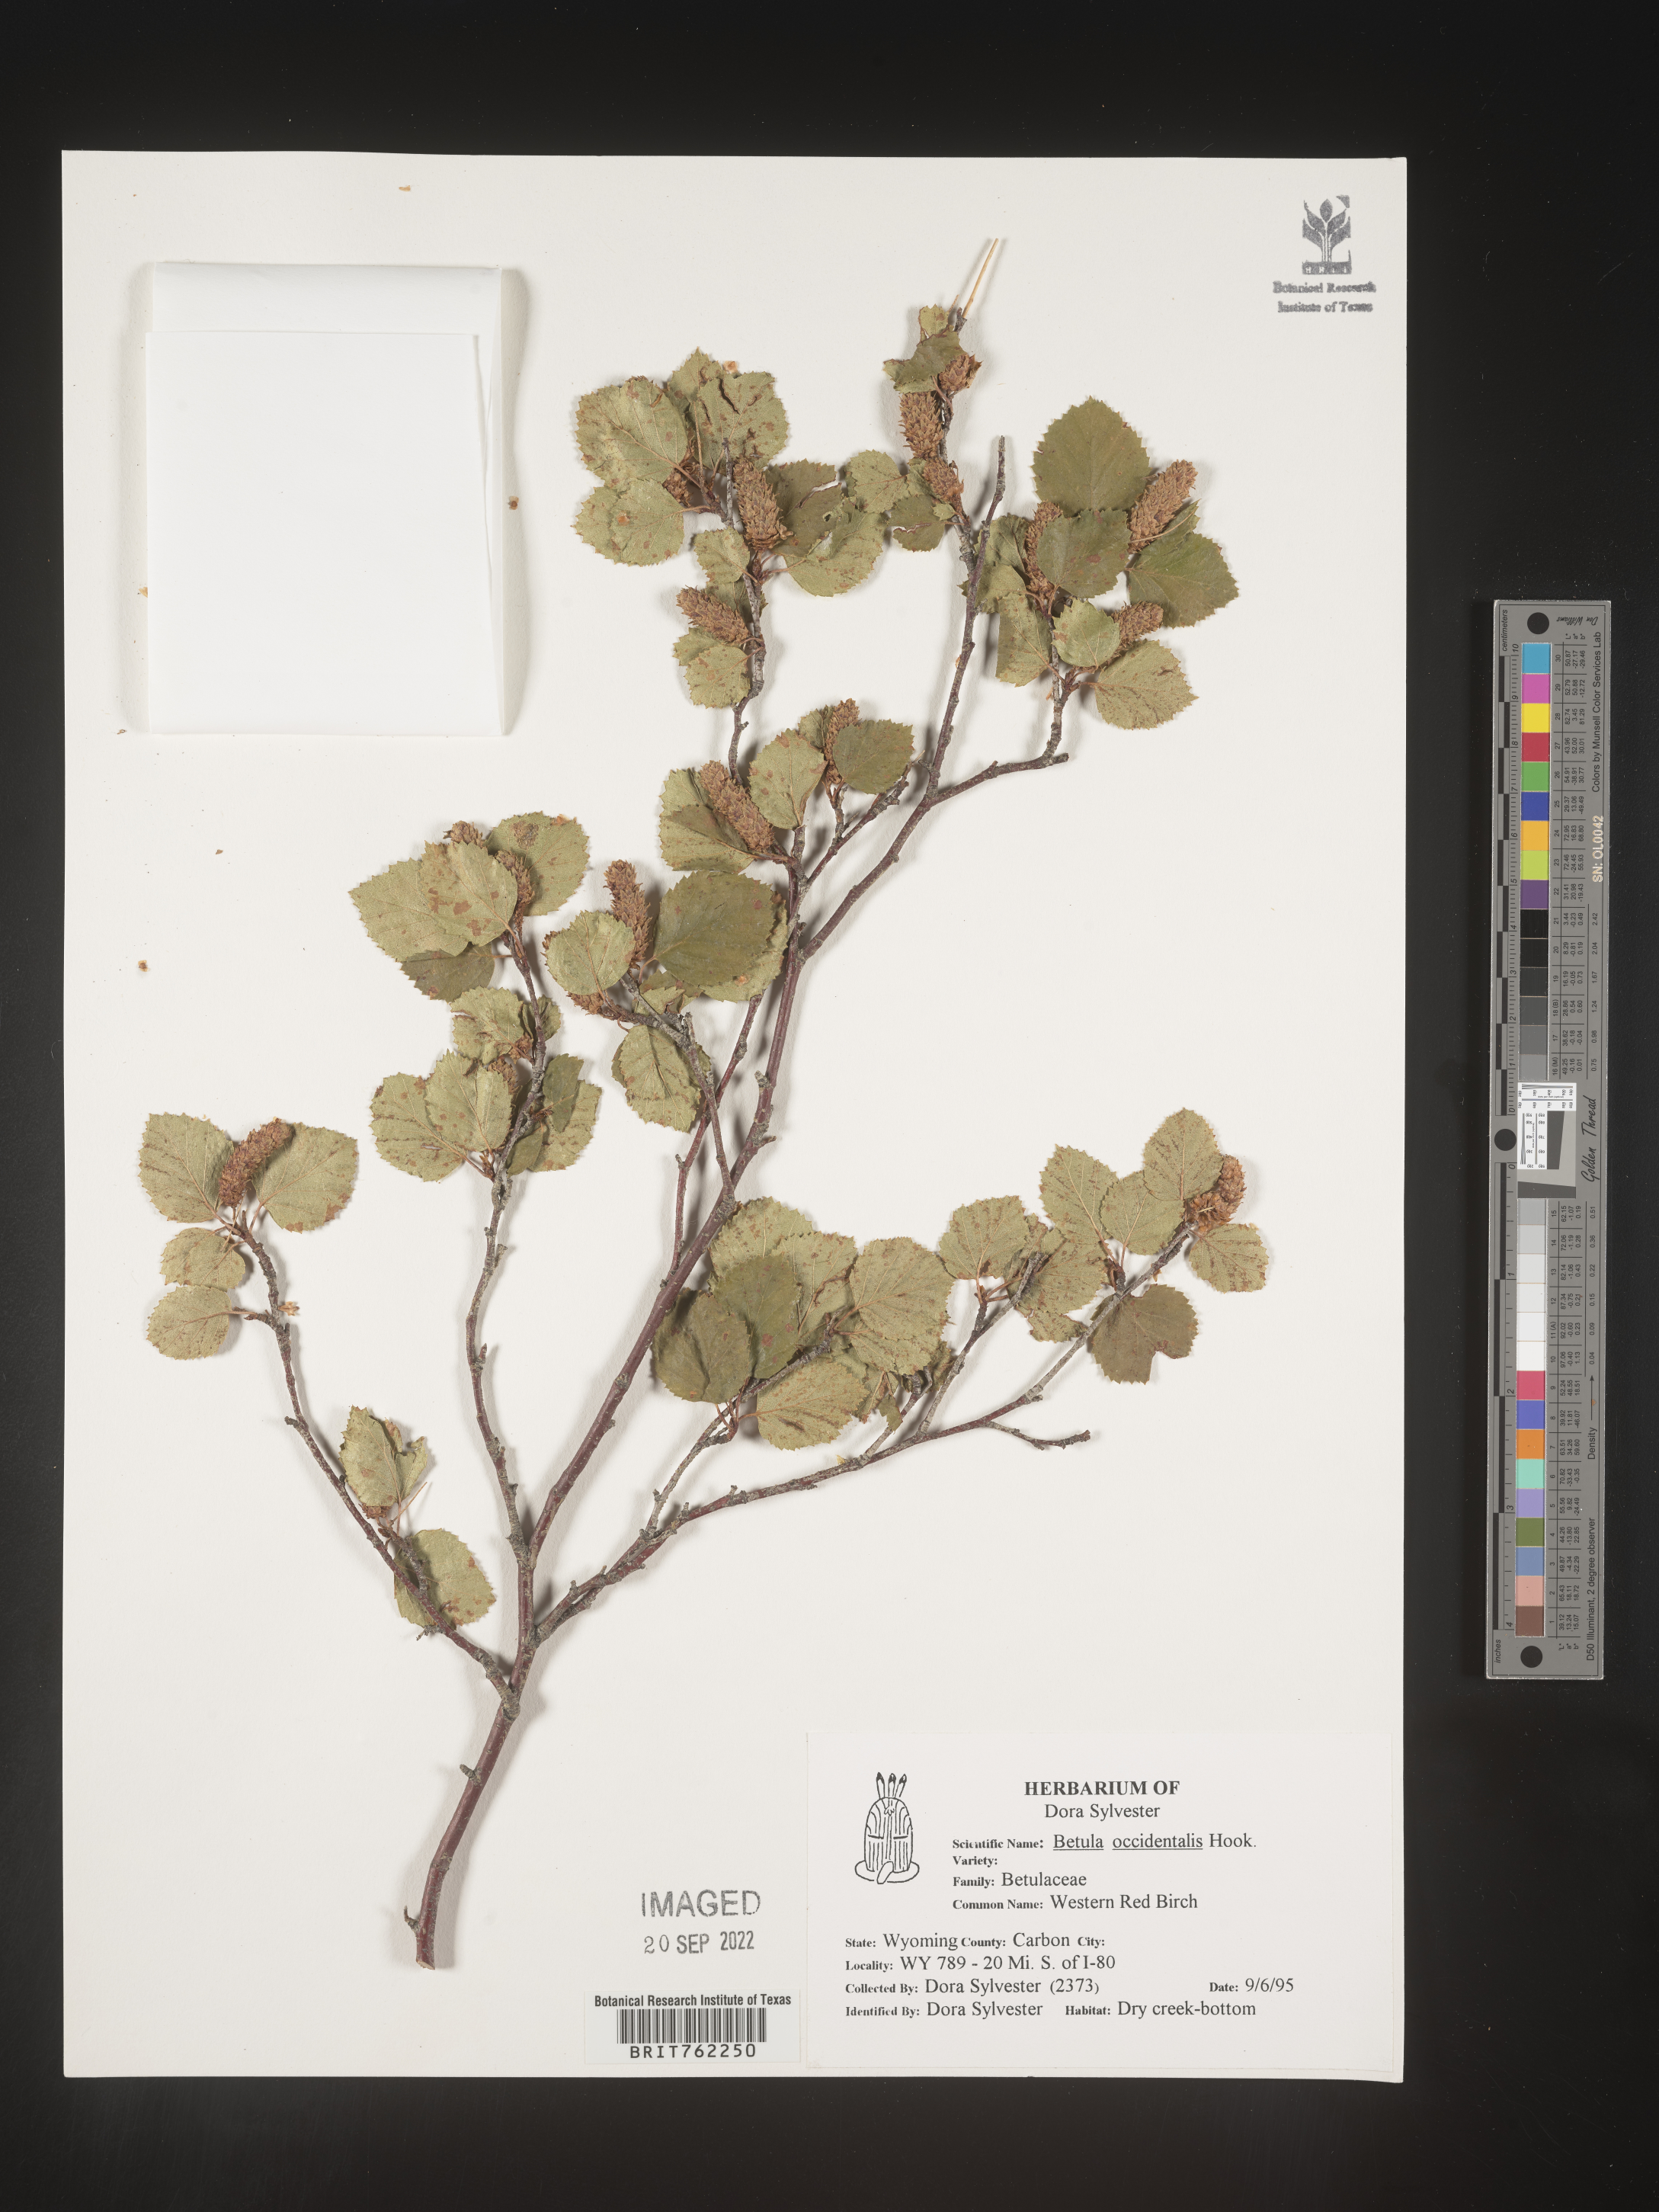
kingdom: Plantae
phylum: Tracheophyta
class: Magnoliopsida
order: Fagales
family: Betulaceae
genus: Betula
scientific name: Betula
